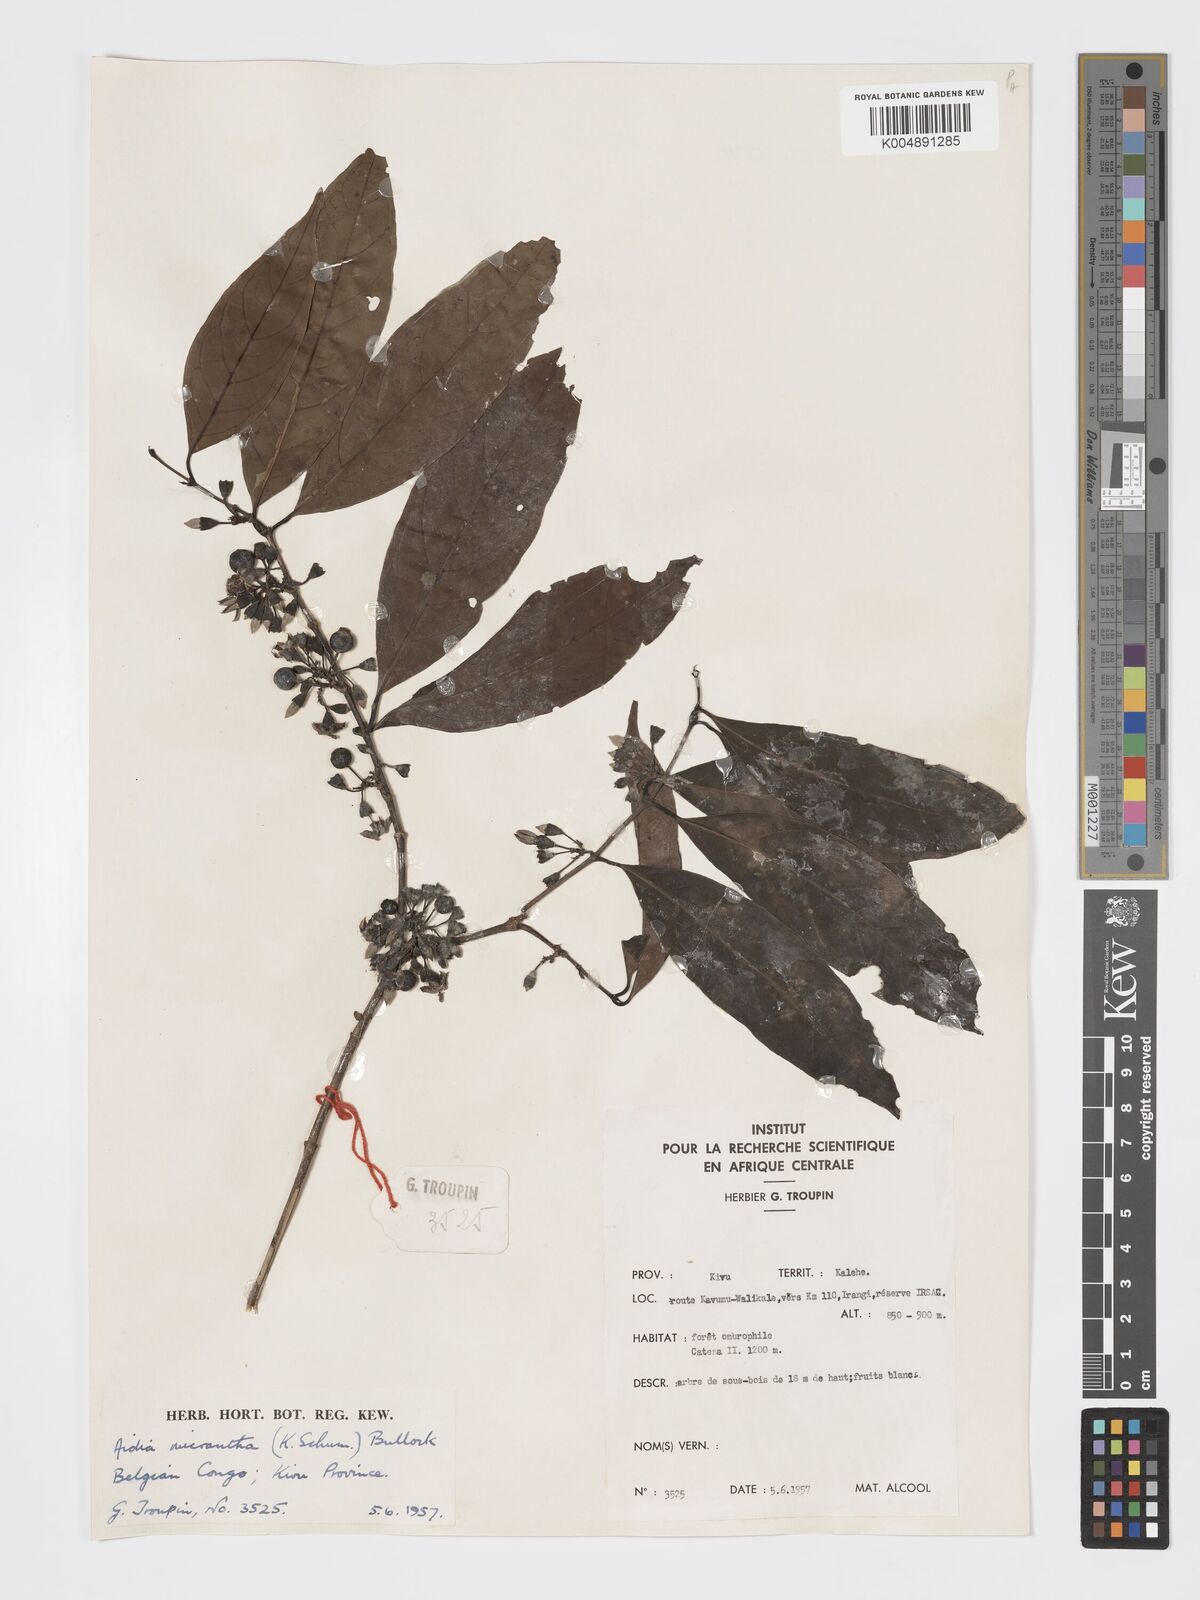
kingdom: Plantae
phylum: Tracheophyta
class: Magnoliopsida
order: Gentianales
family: Rubiaceae
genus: Aidia
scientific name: Aidia micrantha
